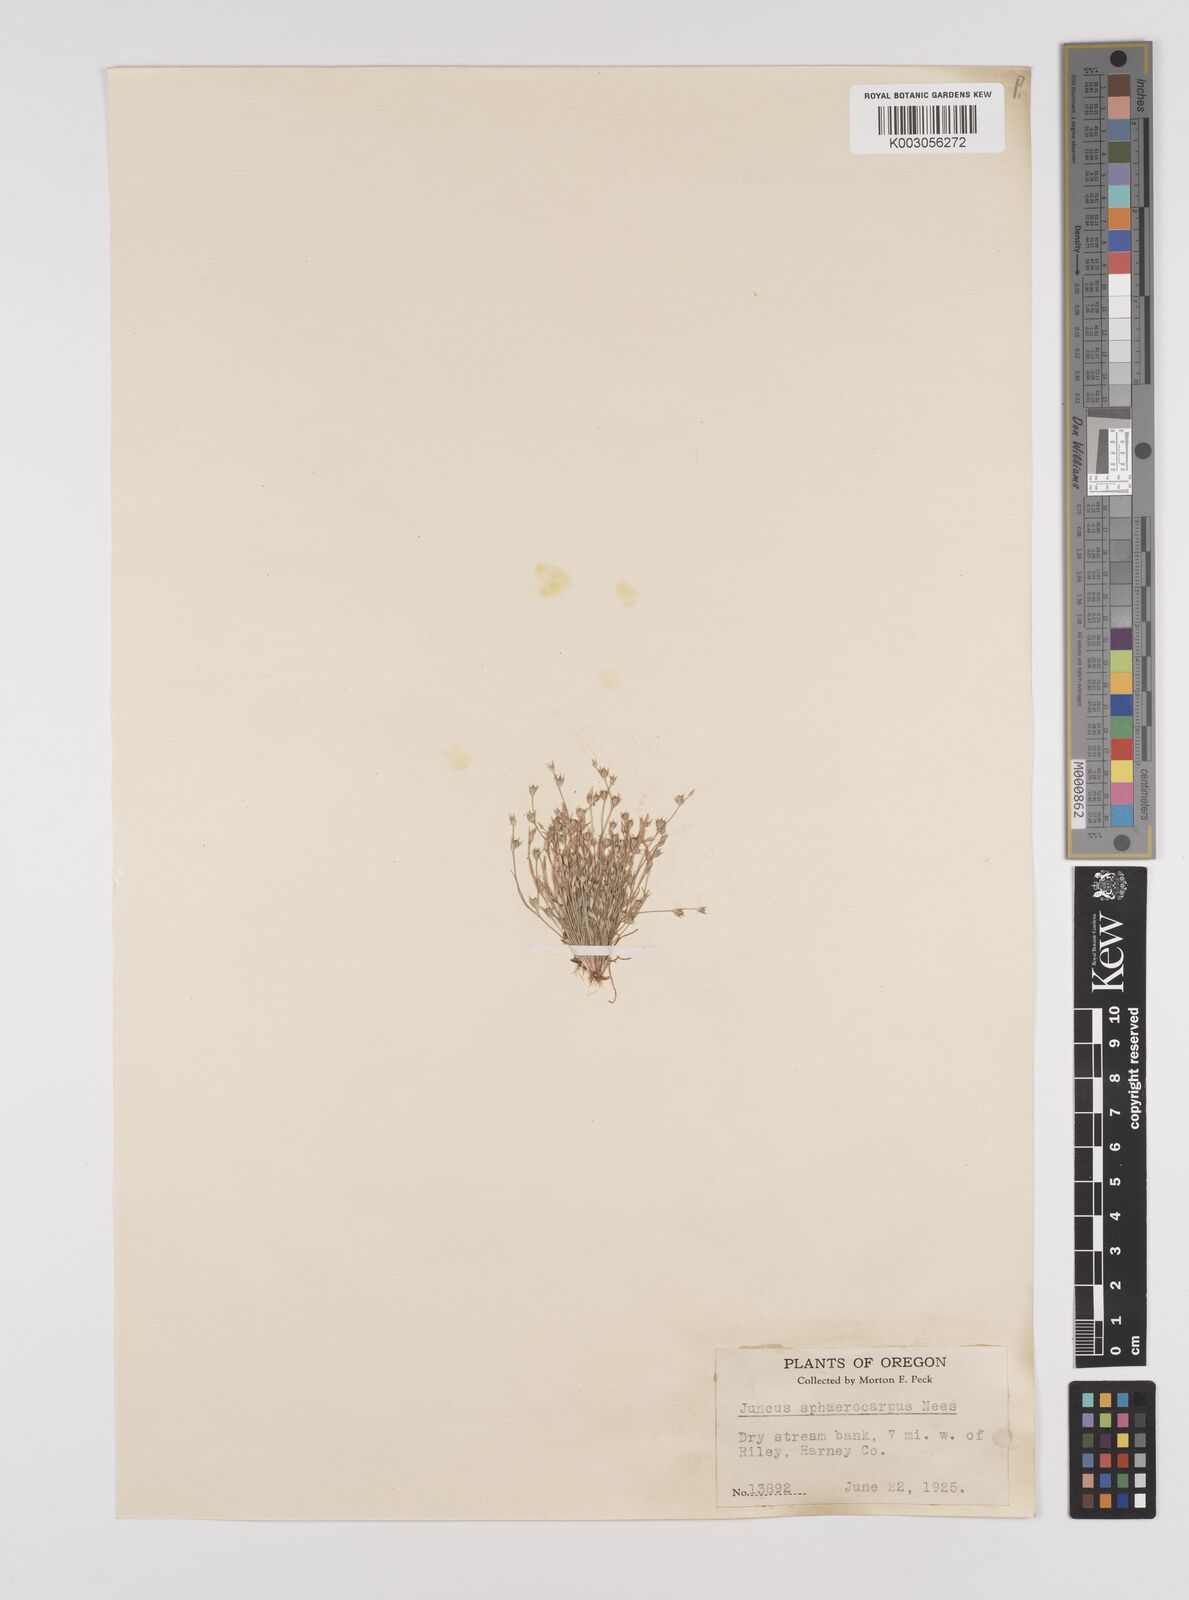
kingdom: Plantae
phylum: Tracheophyta
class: Liliopsida
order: Poales
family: Juncaceae
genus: Juncus
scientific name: Juncus sphaerocarpus
